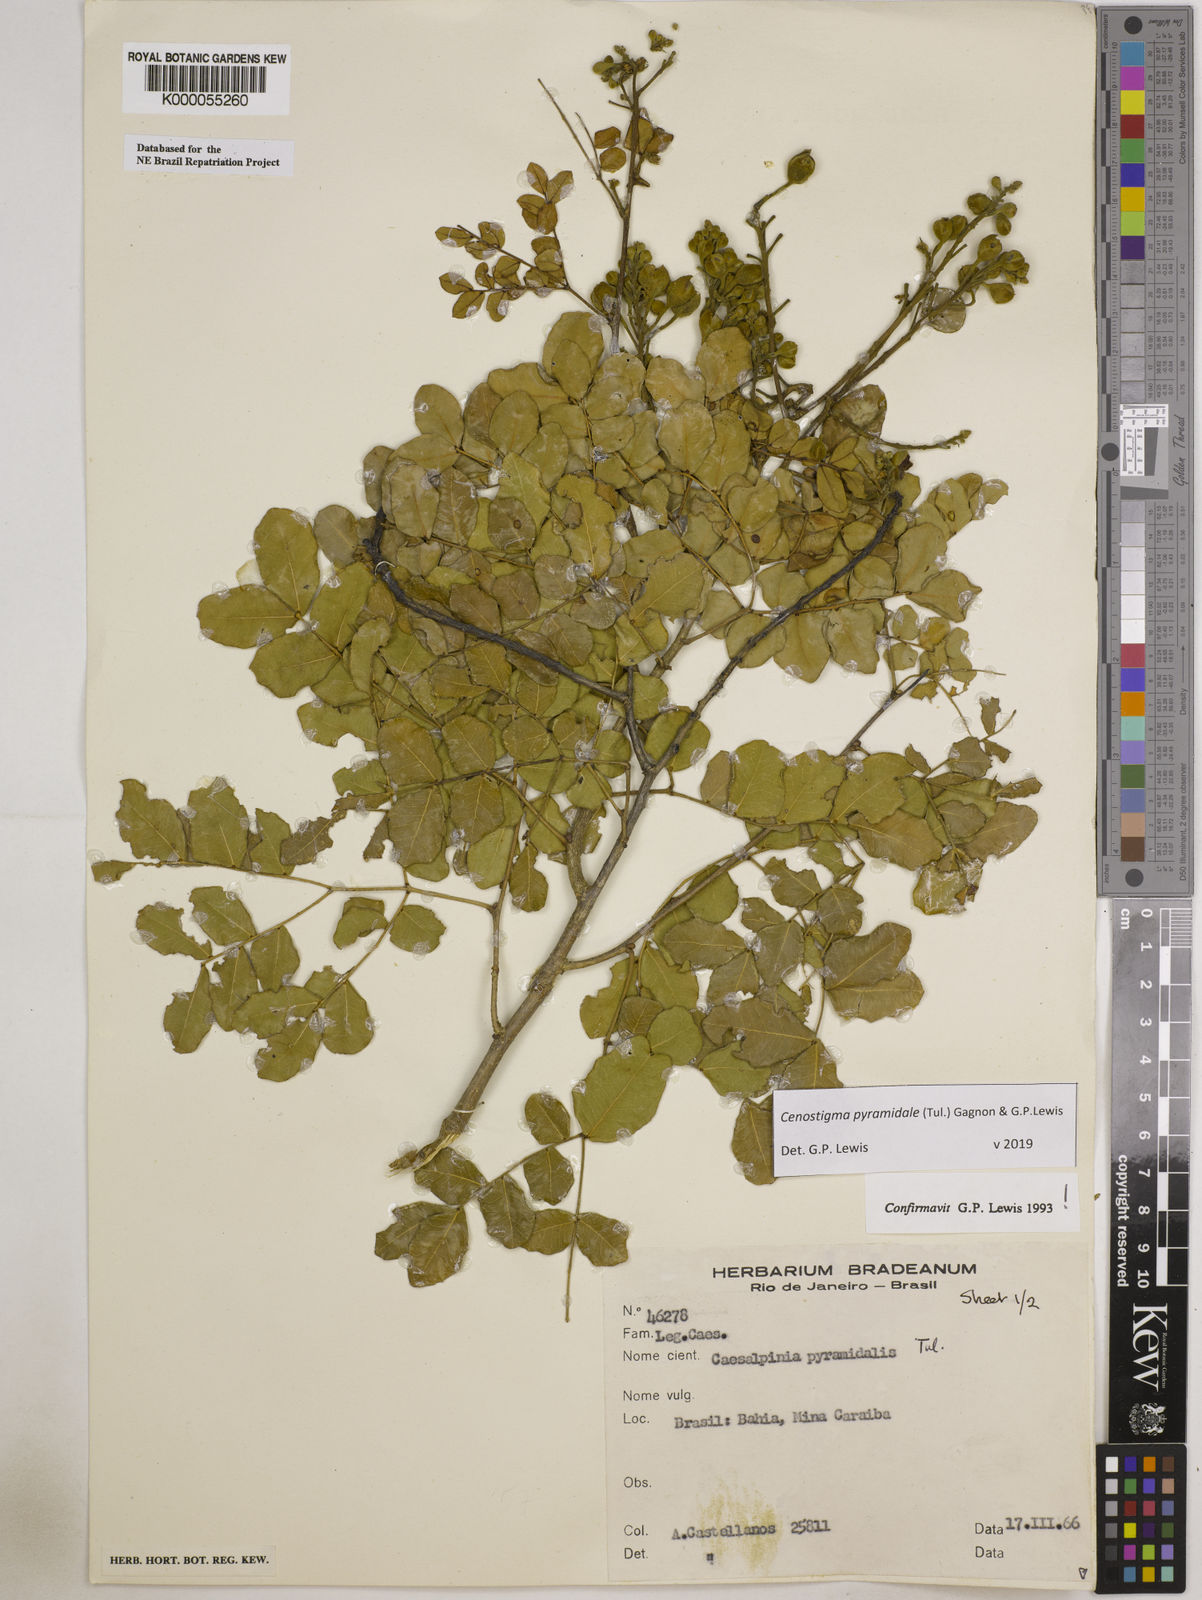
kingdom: Plantae
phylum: Tracheophyta
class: Magnoliopsida
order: Fabales
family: Fabaceae
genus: Cenostigma
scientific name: Cenostigma pyramidale
